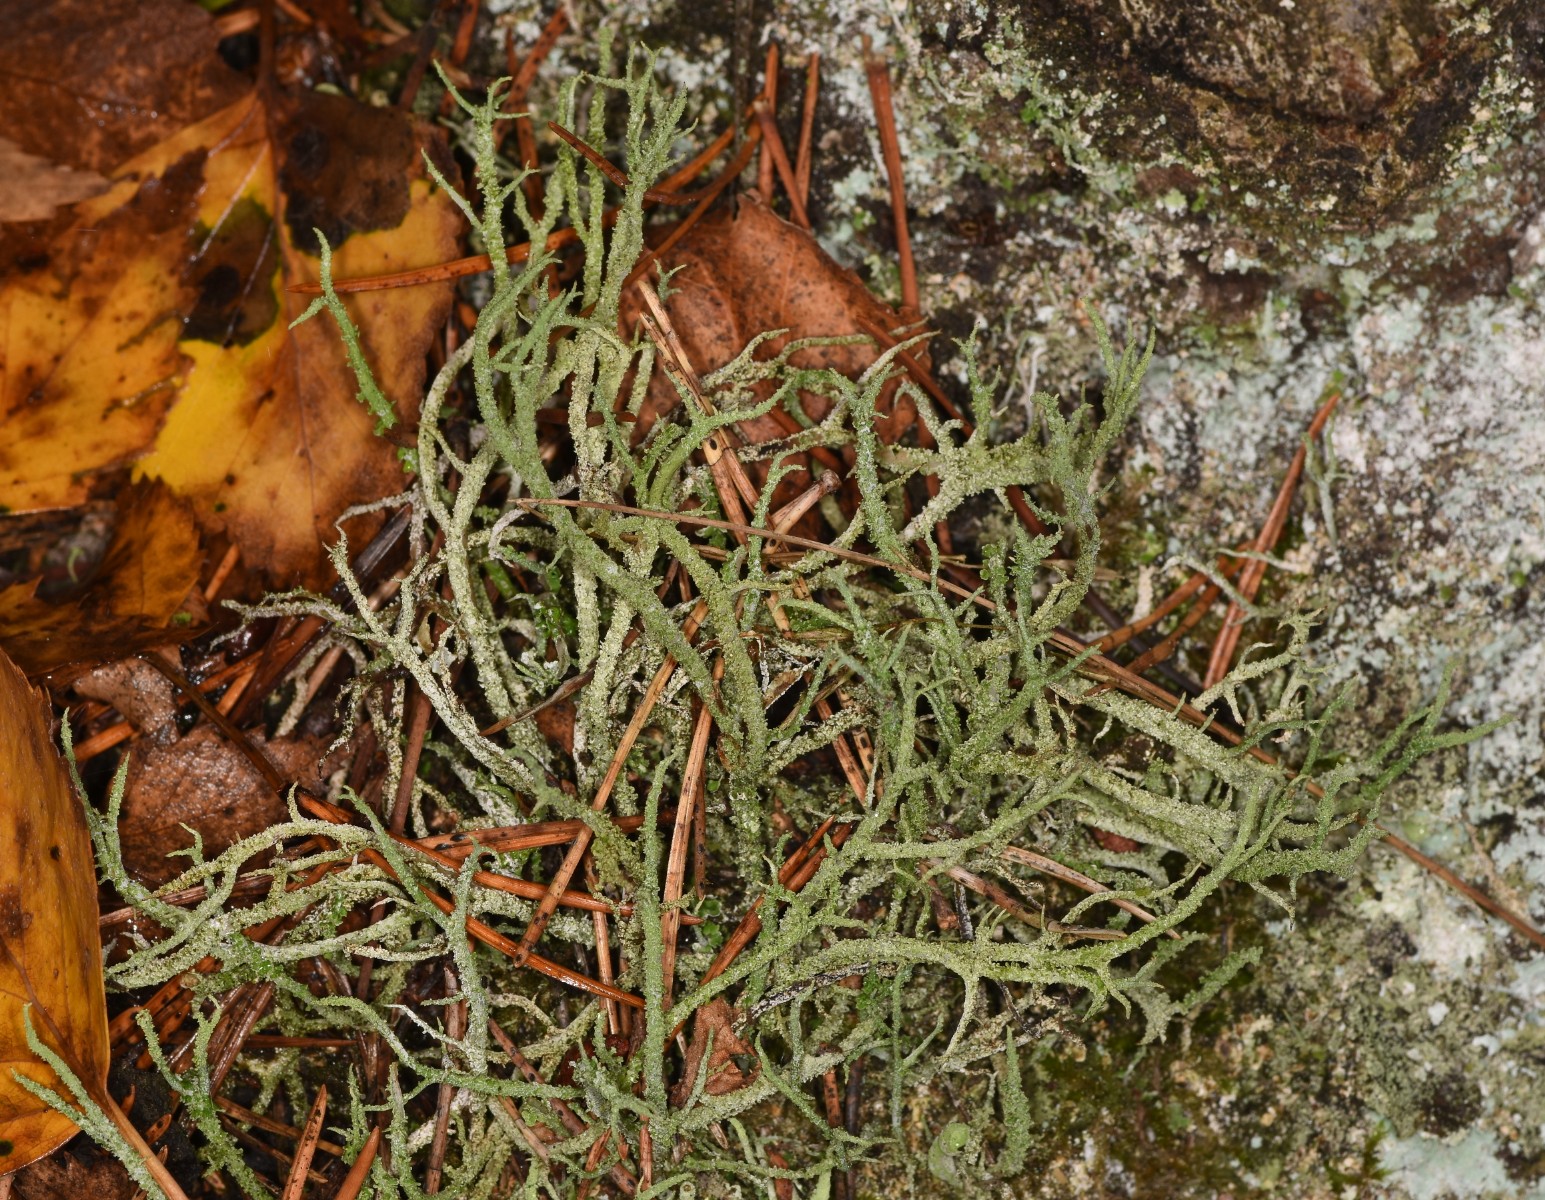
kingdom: Fungi
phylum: Ascomycota
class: Lecanoromycetes
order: Lecanorales
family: Cladoniaceae
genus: Cladonia
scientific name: Cladonia scabriuscula
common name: ru bægerlav
